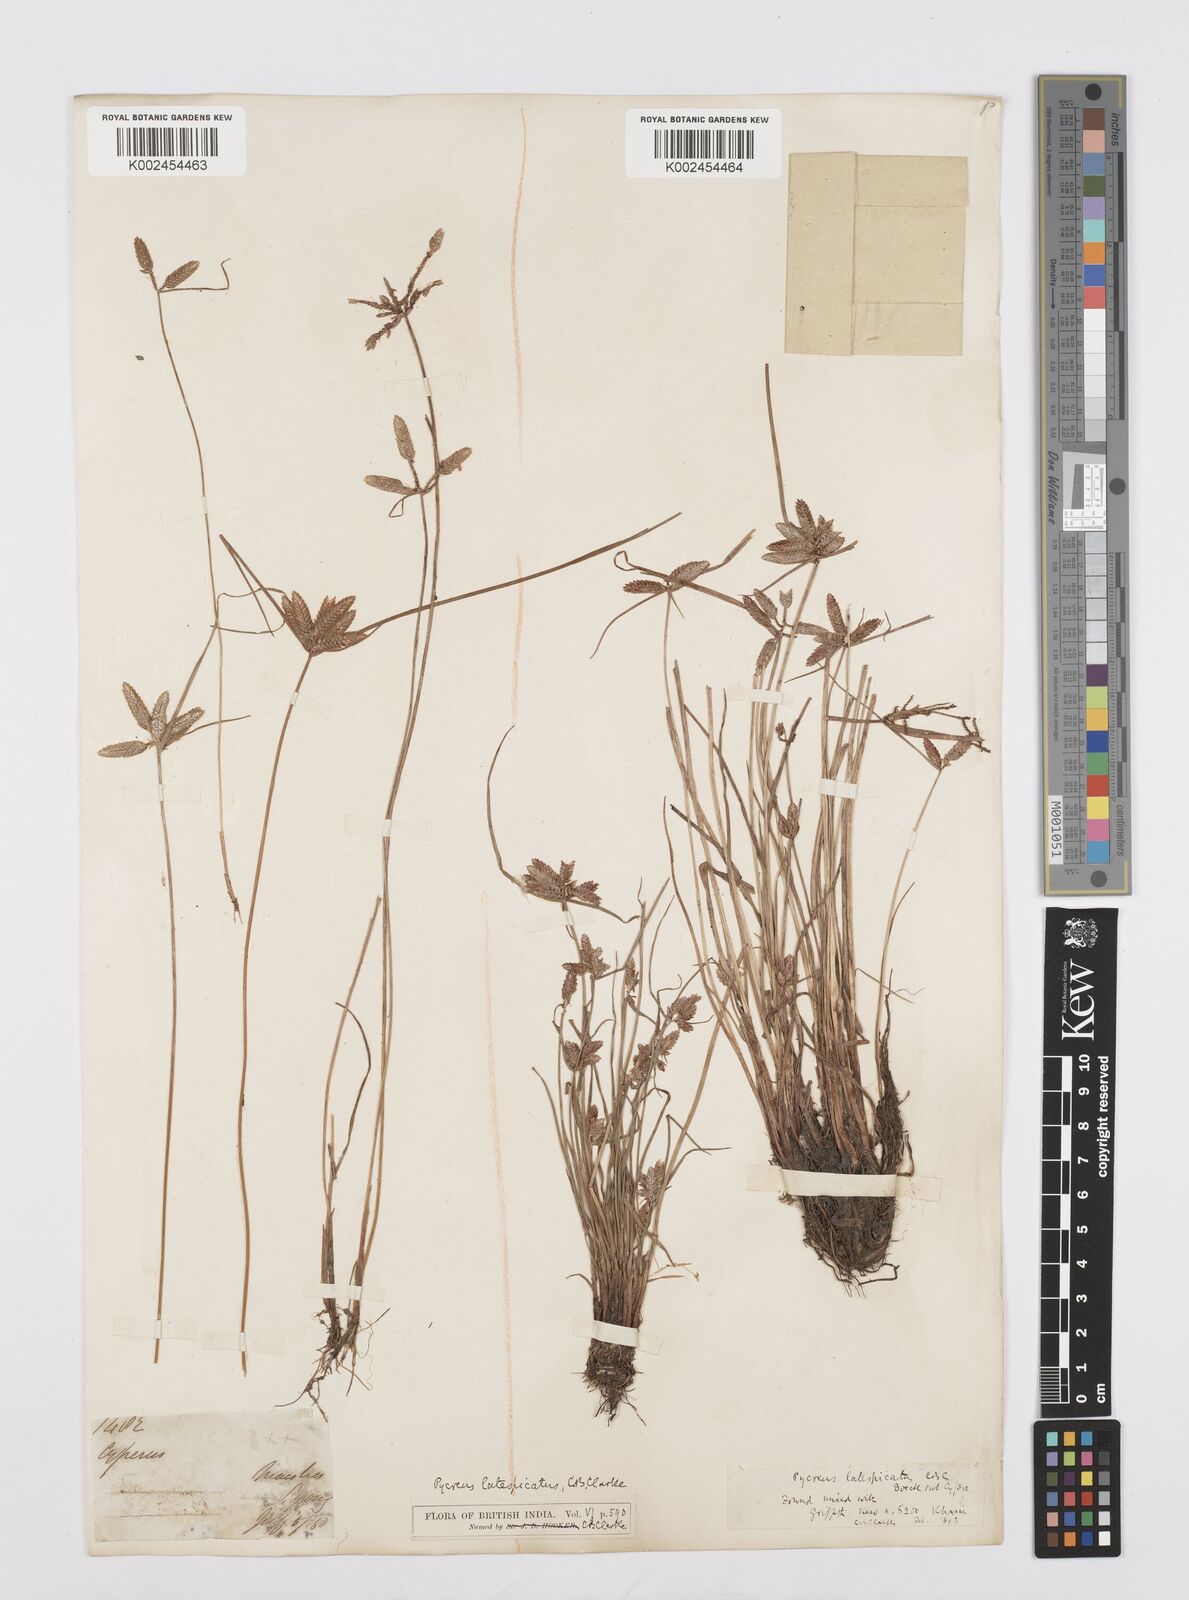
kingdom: Plantae
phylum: Tracheophyta
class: Liliopsida
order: Poales
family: Cyperaceae
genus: Cyperus
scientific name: Cyperus diaphanus
